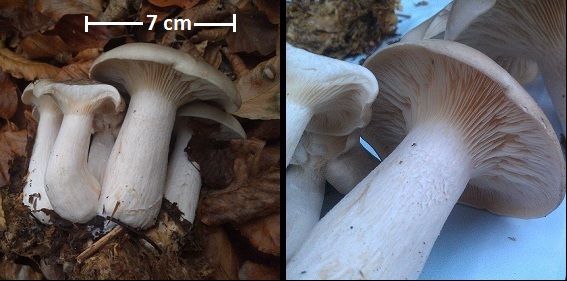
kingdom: Fungi
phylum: Basidiomycota
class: Agaricomycetes
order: Agaricales
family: Tricholomataceae
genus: Clitocybe
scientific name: Clitocybe nebularis
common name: tåge-tragthat
